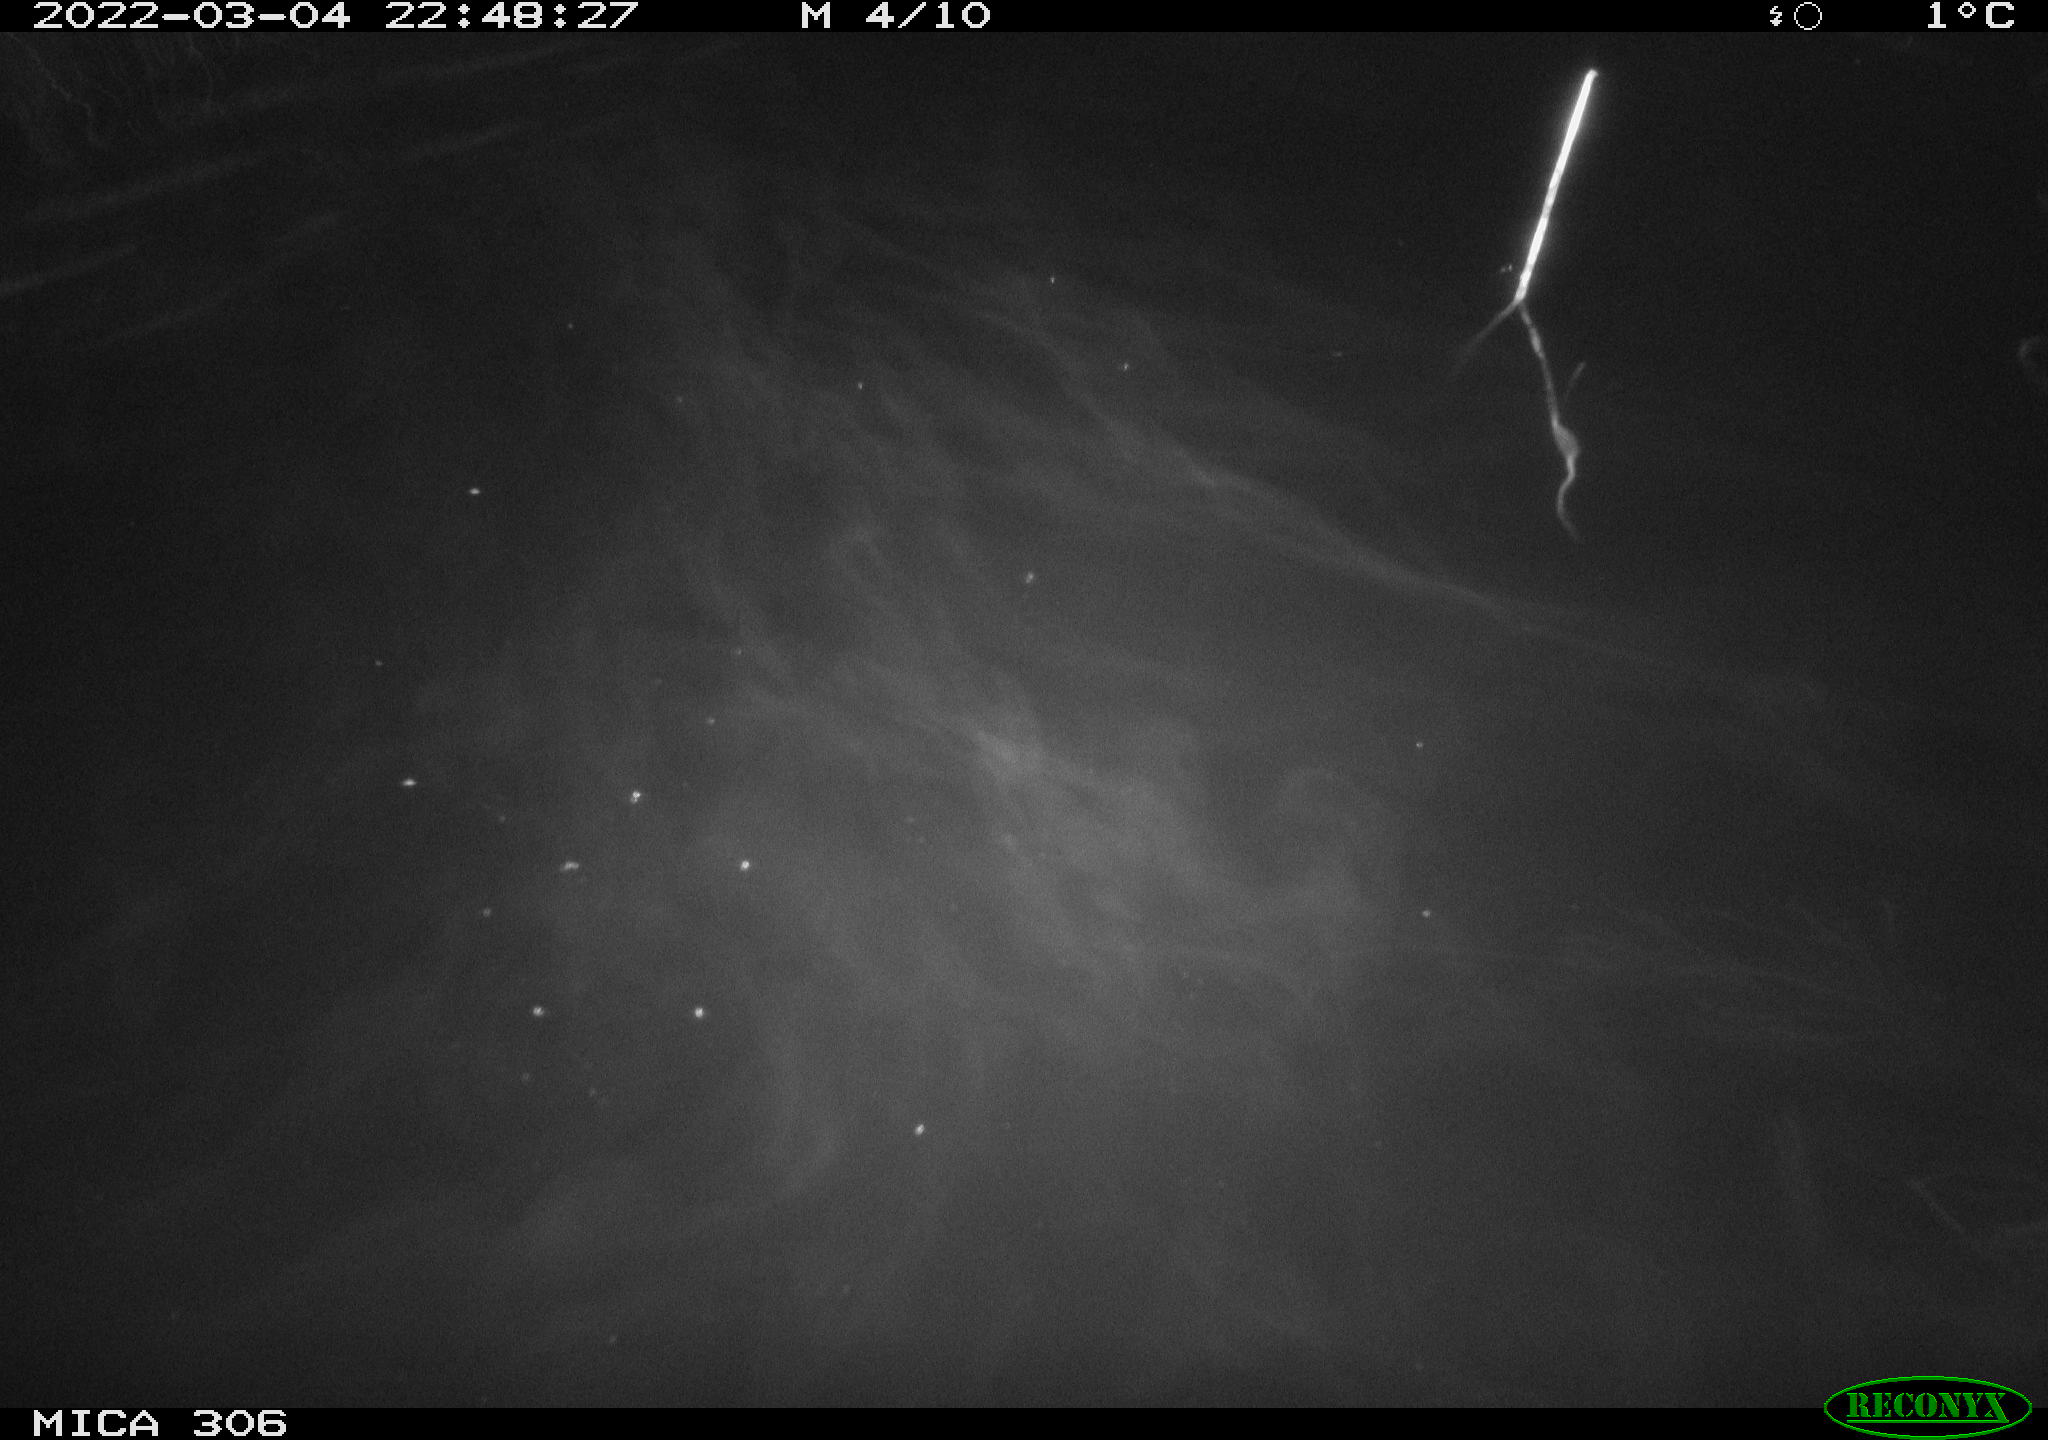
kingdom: Animalia
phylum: Chordata
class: Mammalia
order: Rodentia
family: Cricetidae
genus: Ondatra
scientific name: Ondatra zibethicus
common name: Muskrat
